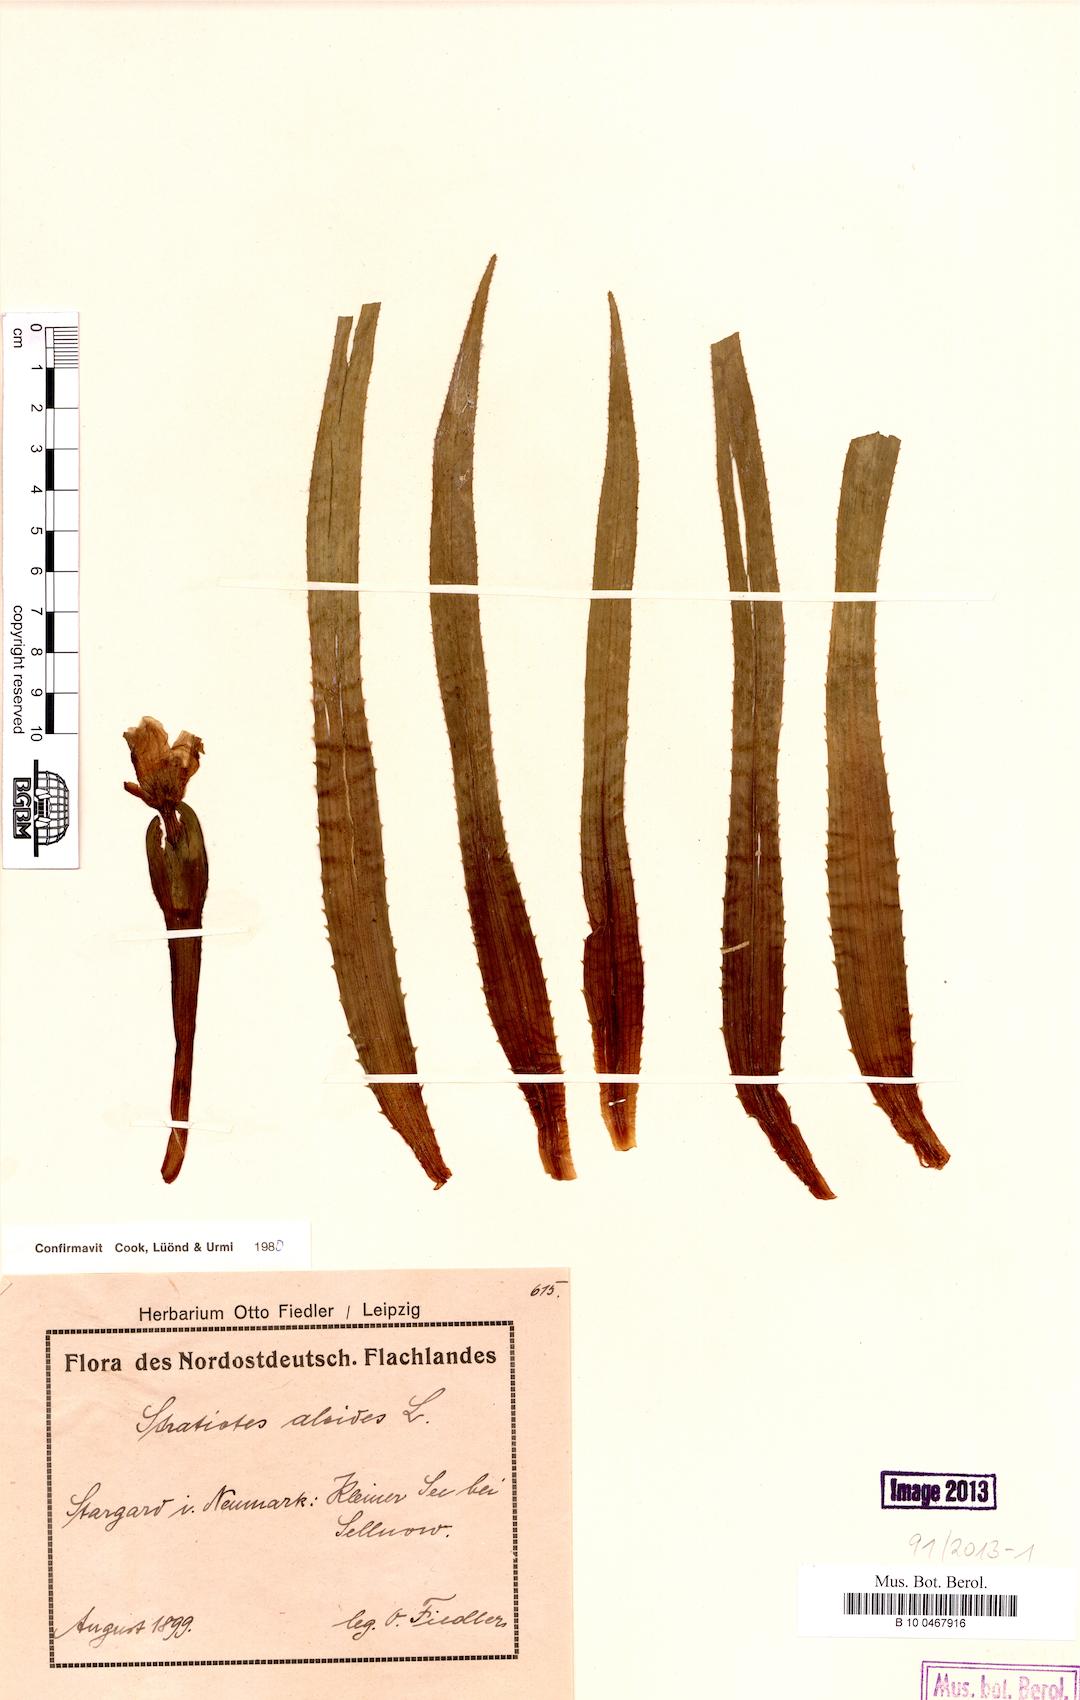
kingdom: Plantae
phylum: Tracheophyta
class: Liliopsida
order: Alismatales
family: Hydrocharitaceae
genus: Stratiotes
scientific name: Stratiotes aloides
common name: Water-soldier
